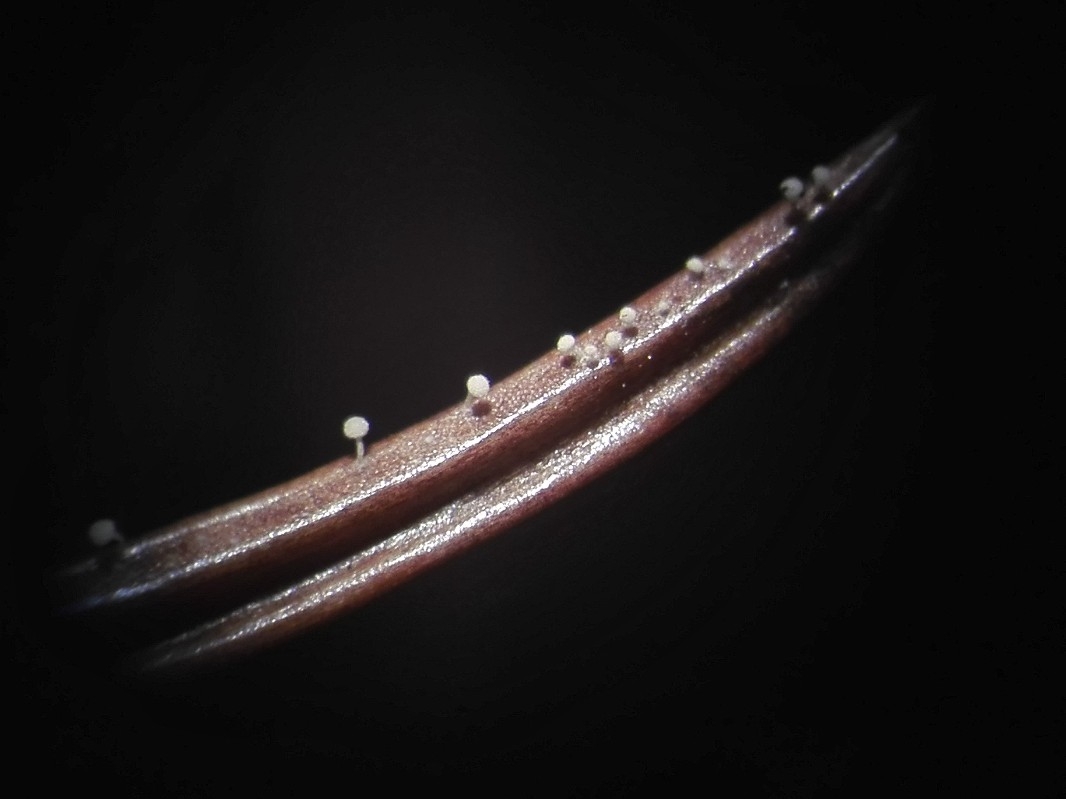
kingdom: Fungi
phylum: Basidiomycota
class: Agaricomycetes
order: Agaricales
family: Physalacriaceae
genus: Physalacria
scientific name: Physalacria cryptomeriae
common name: japangran-boldkølle
